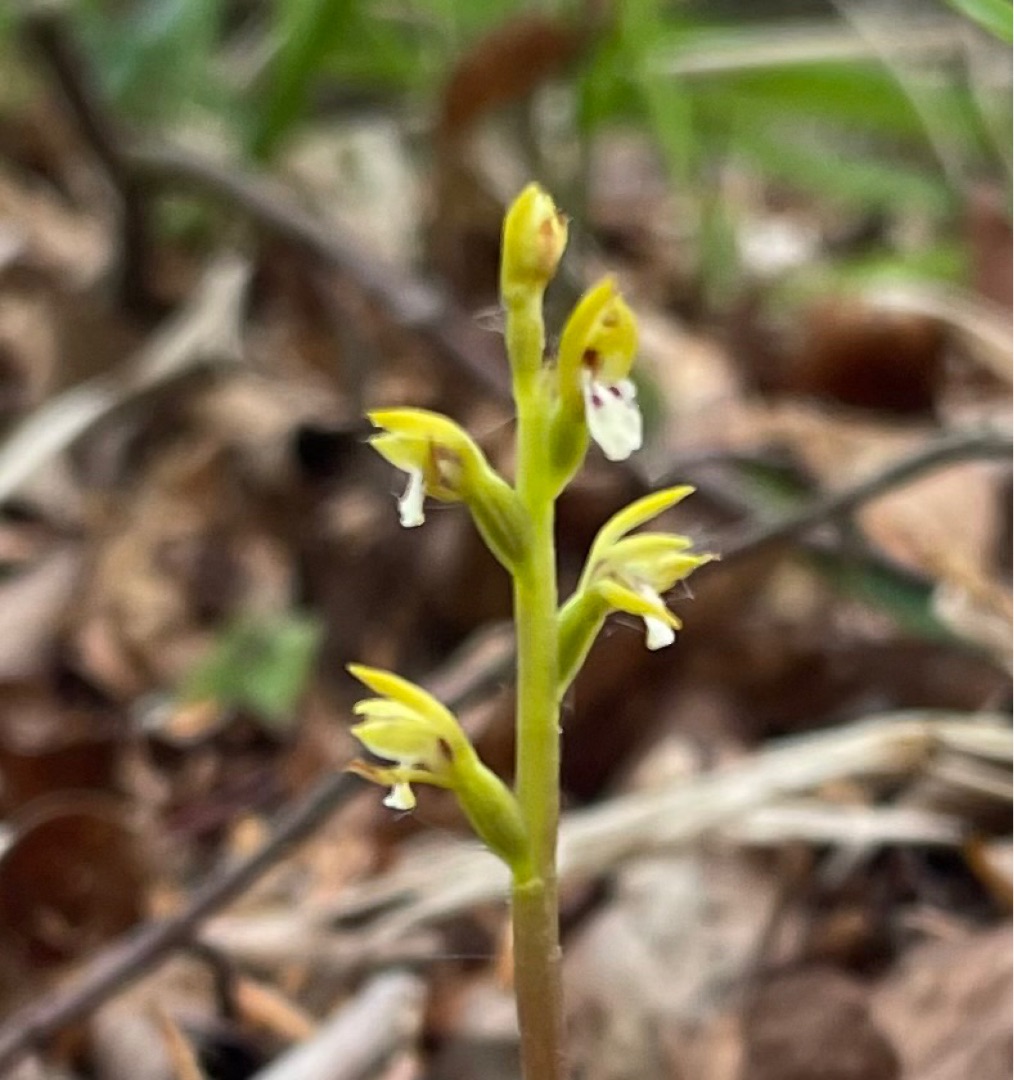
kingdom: Plantae
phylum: Tracheophyta
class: Liliopsida
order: Asparagales
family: Orchidaceae
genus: Corallorhiza
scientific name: Corallorhiza trifida
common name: Koralrod
